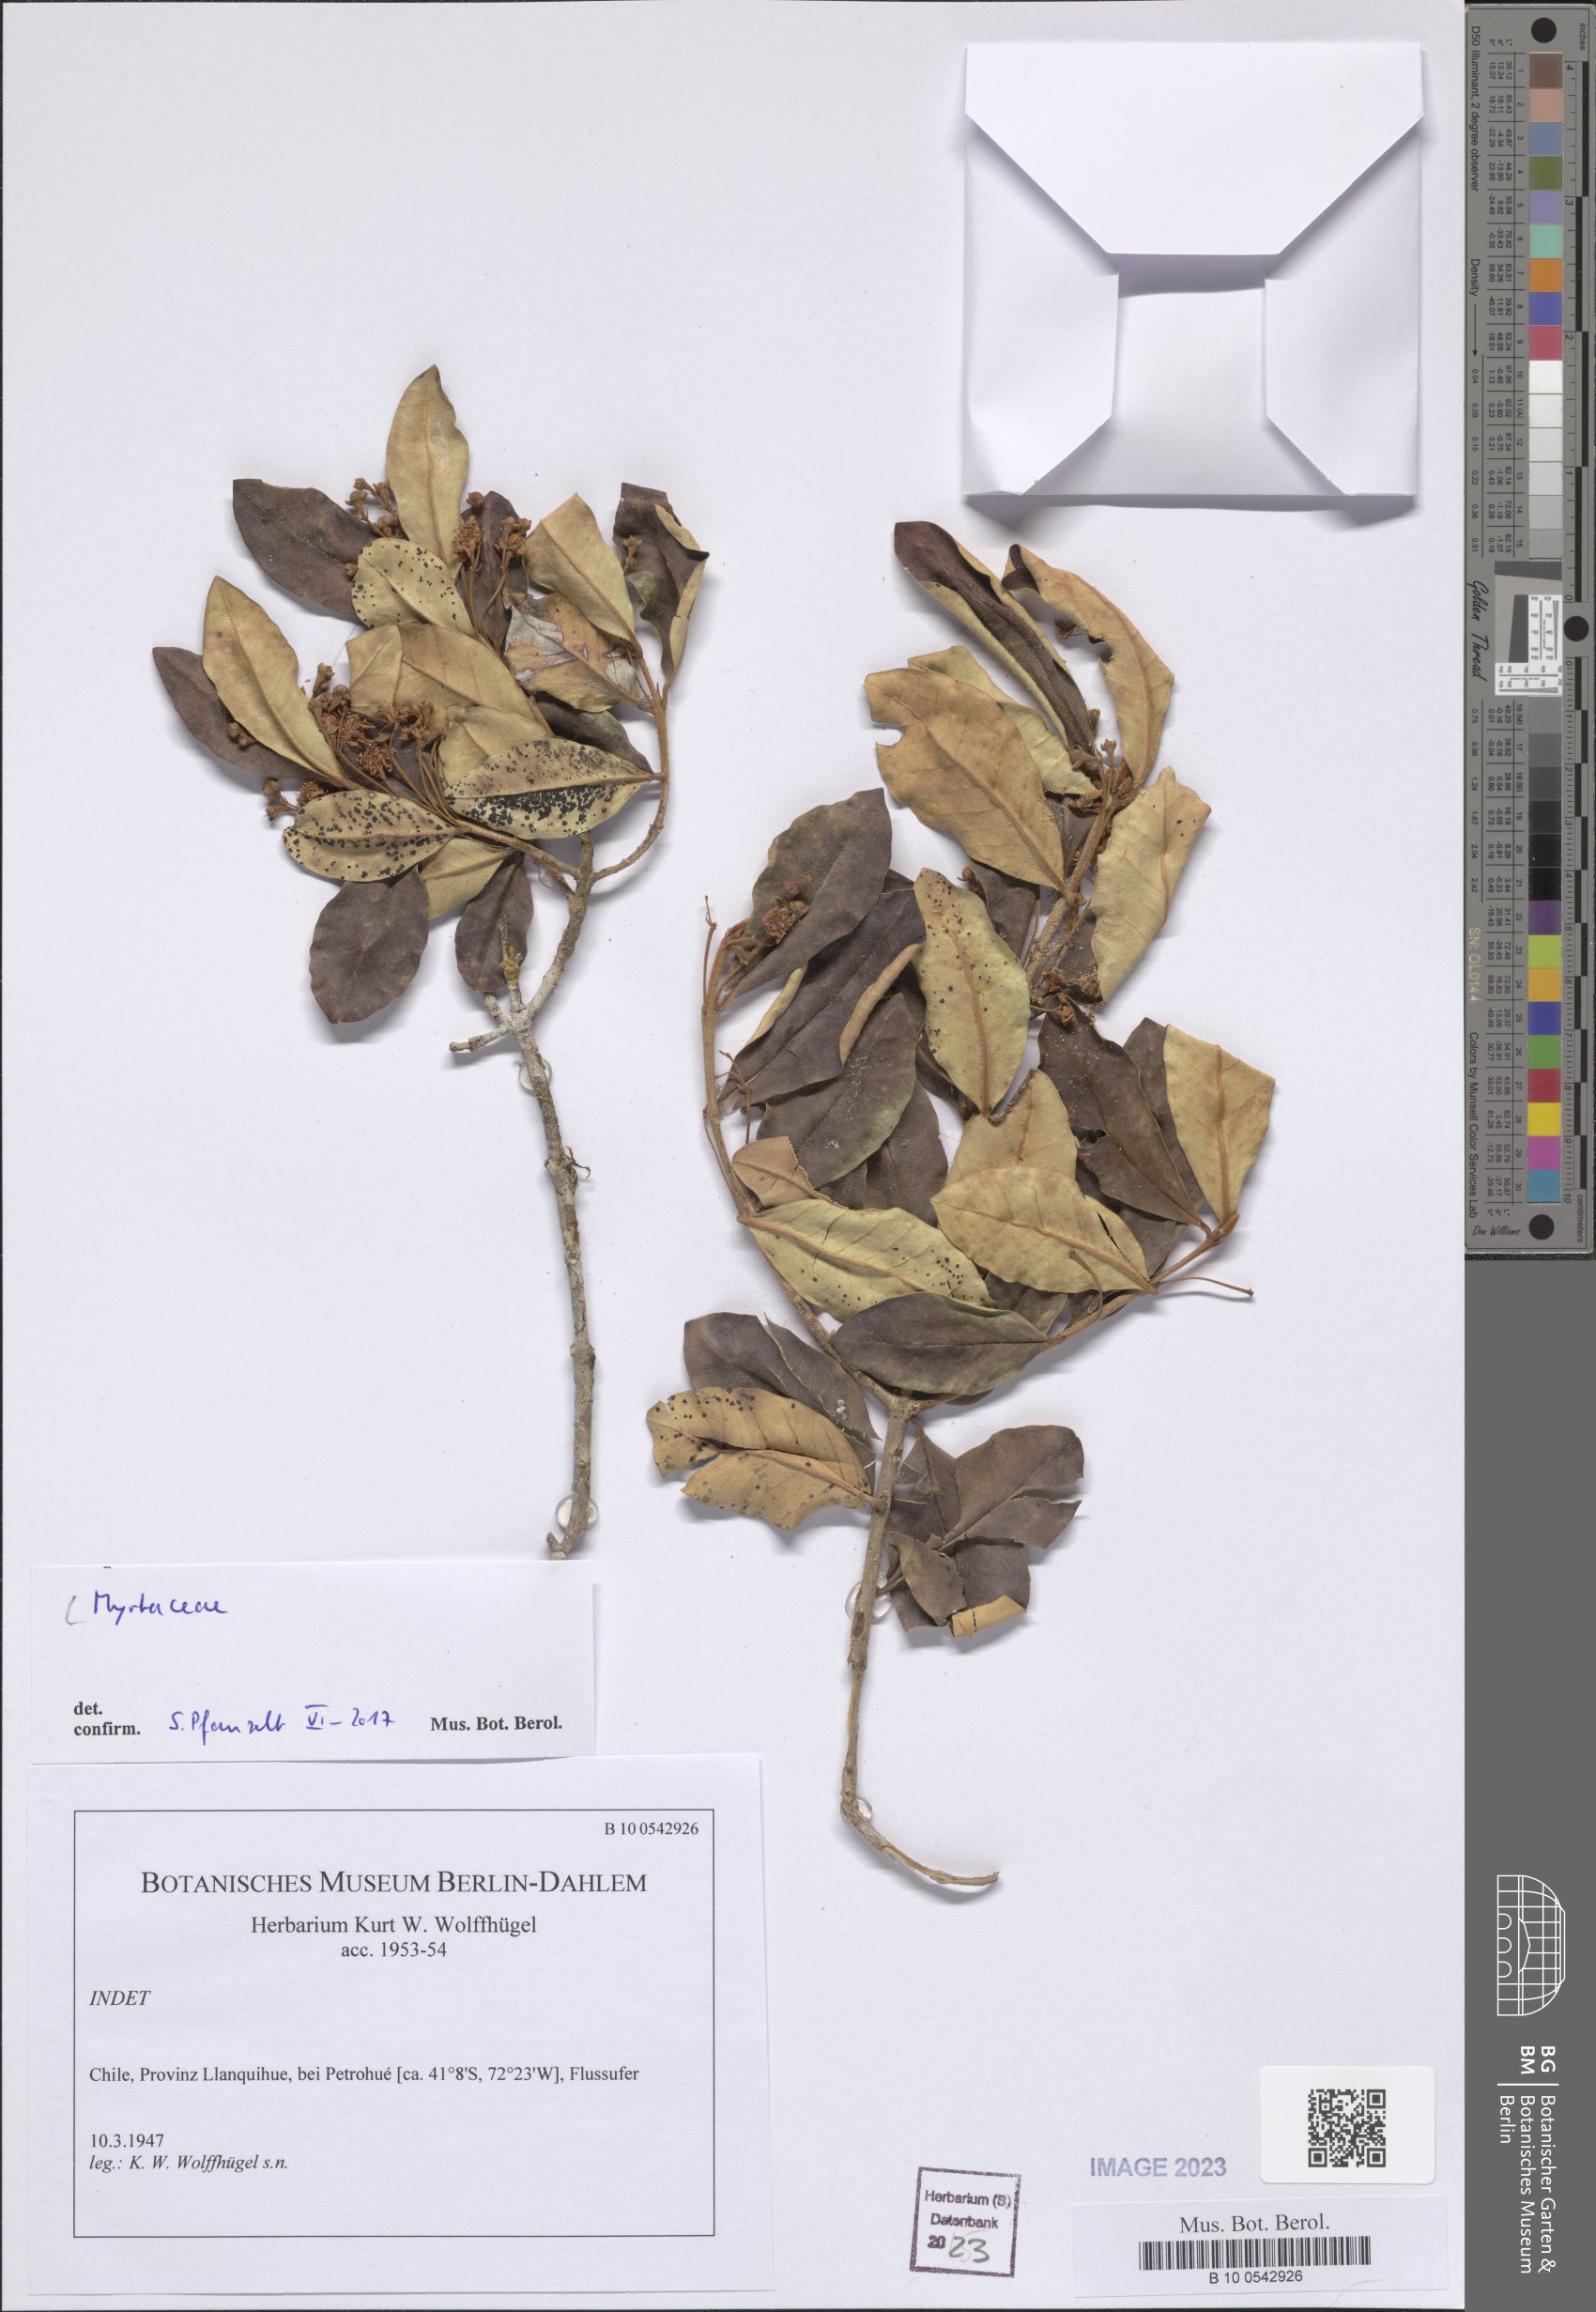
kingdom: Plantae
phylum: Tracheophyta
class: Magnoliopsida
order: Myrtales
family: Myrtaceae
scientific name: Myrtaceae
